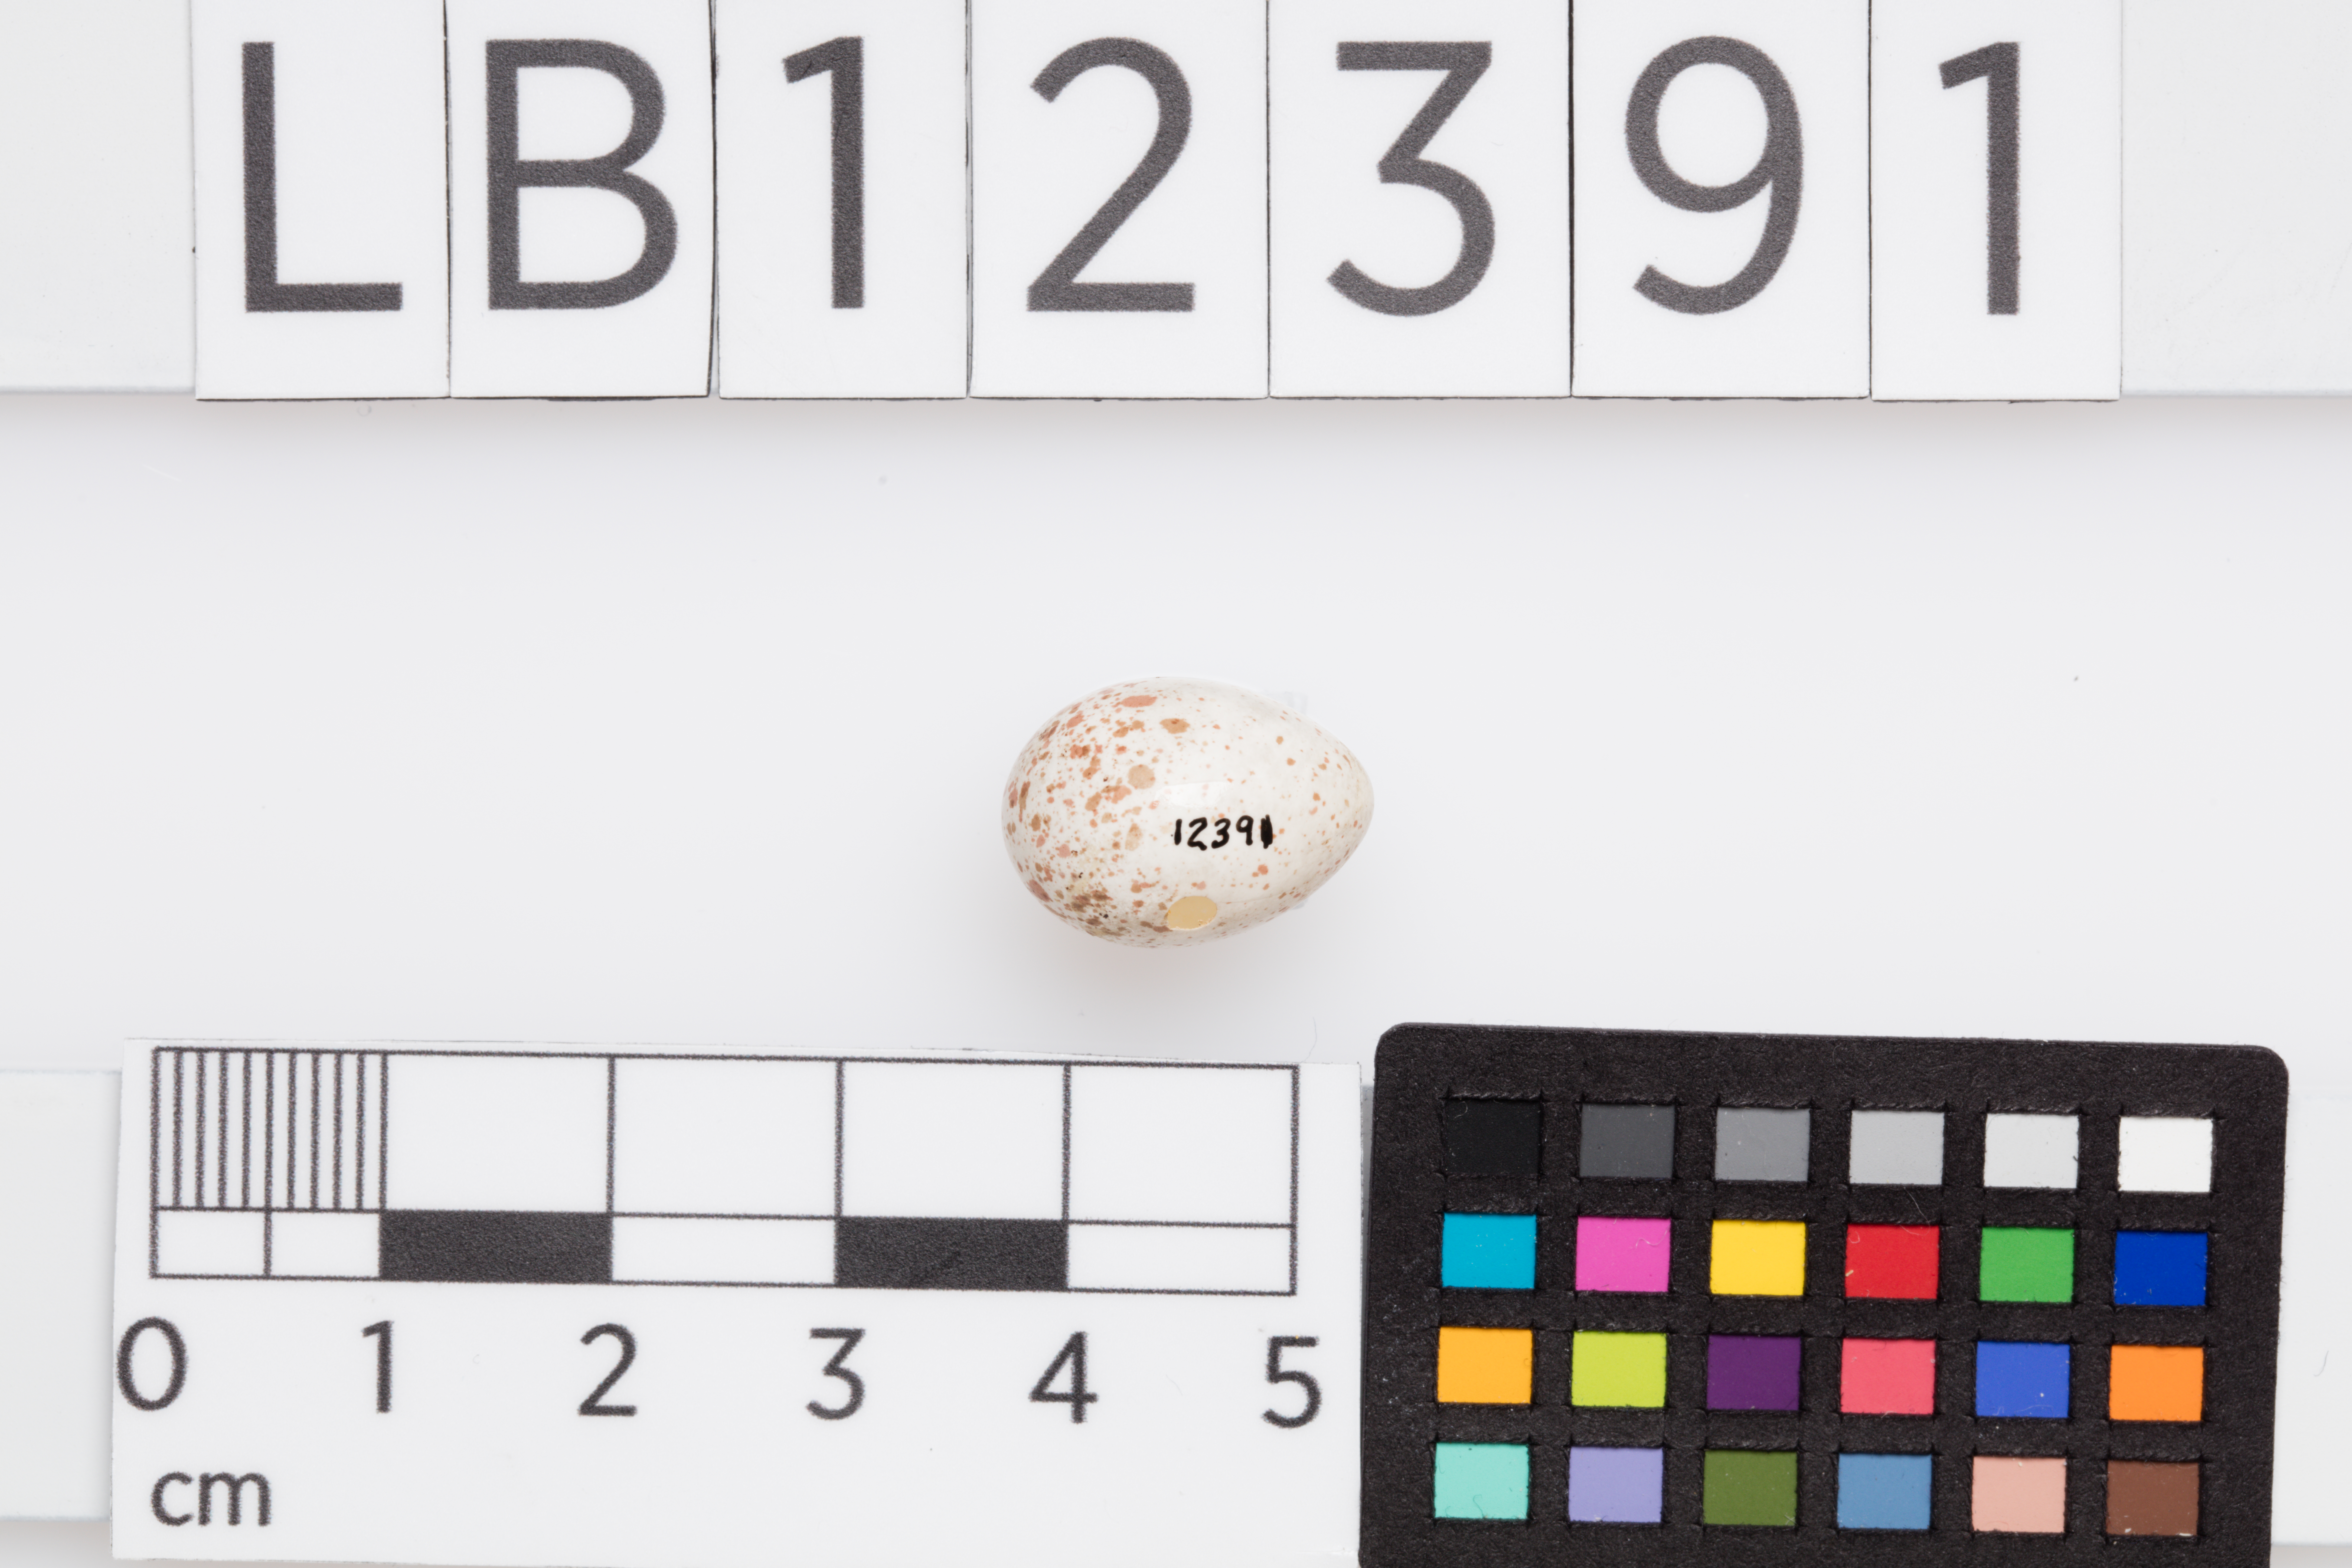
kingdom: Animalia
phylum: Chordata
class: Aves
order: Passeriformes
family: Phylloscopidae
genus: Phylloscopus
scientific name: Phylloscopus trochilus
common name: Willow warbler
